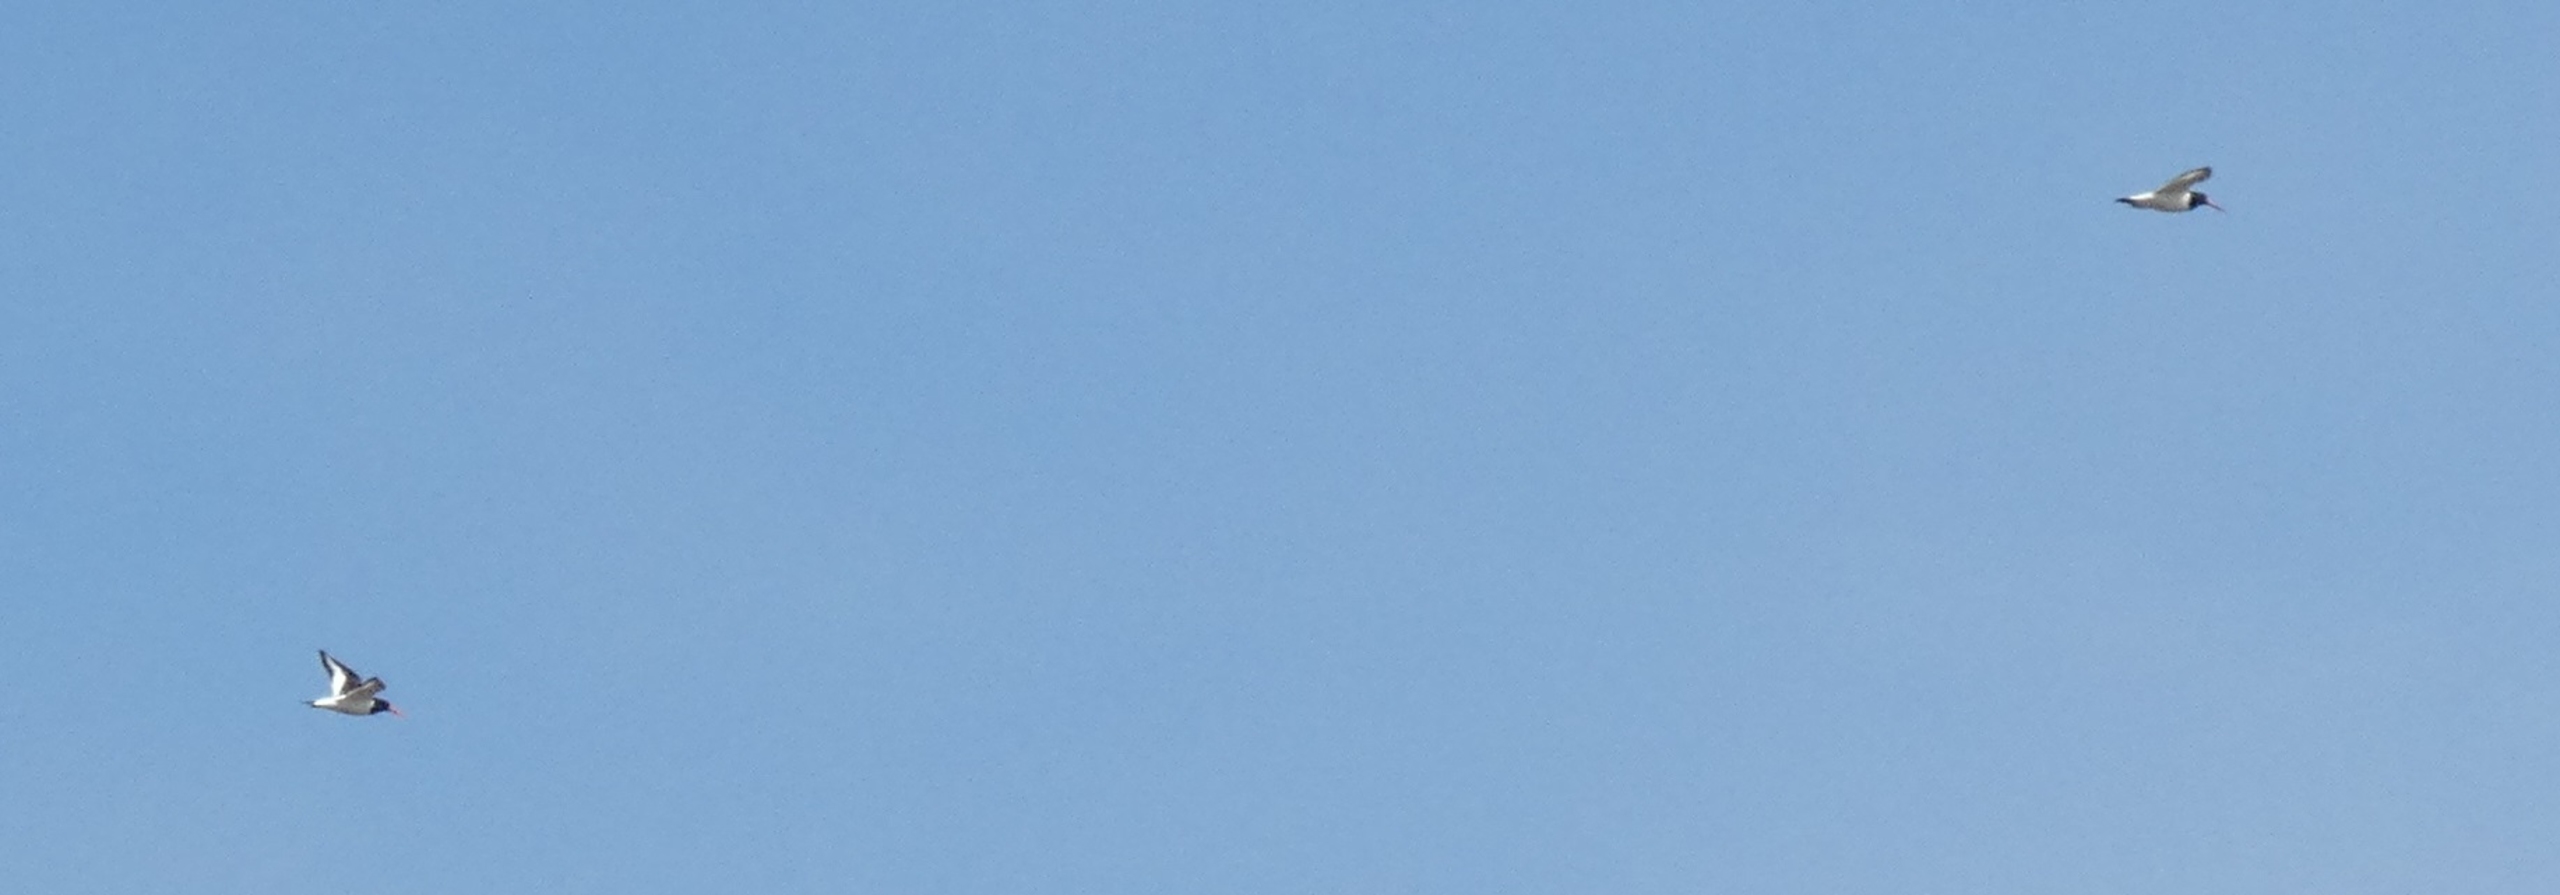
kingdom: Animalia
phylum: Chordata
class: Aves
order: Charadriiformes
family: Haematopodidae
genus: Haematopus
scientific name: Haematopus ostralegus
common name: Strandskade
